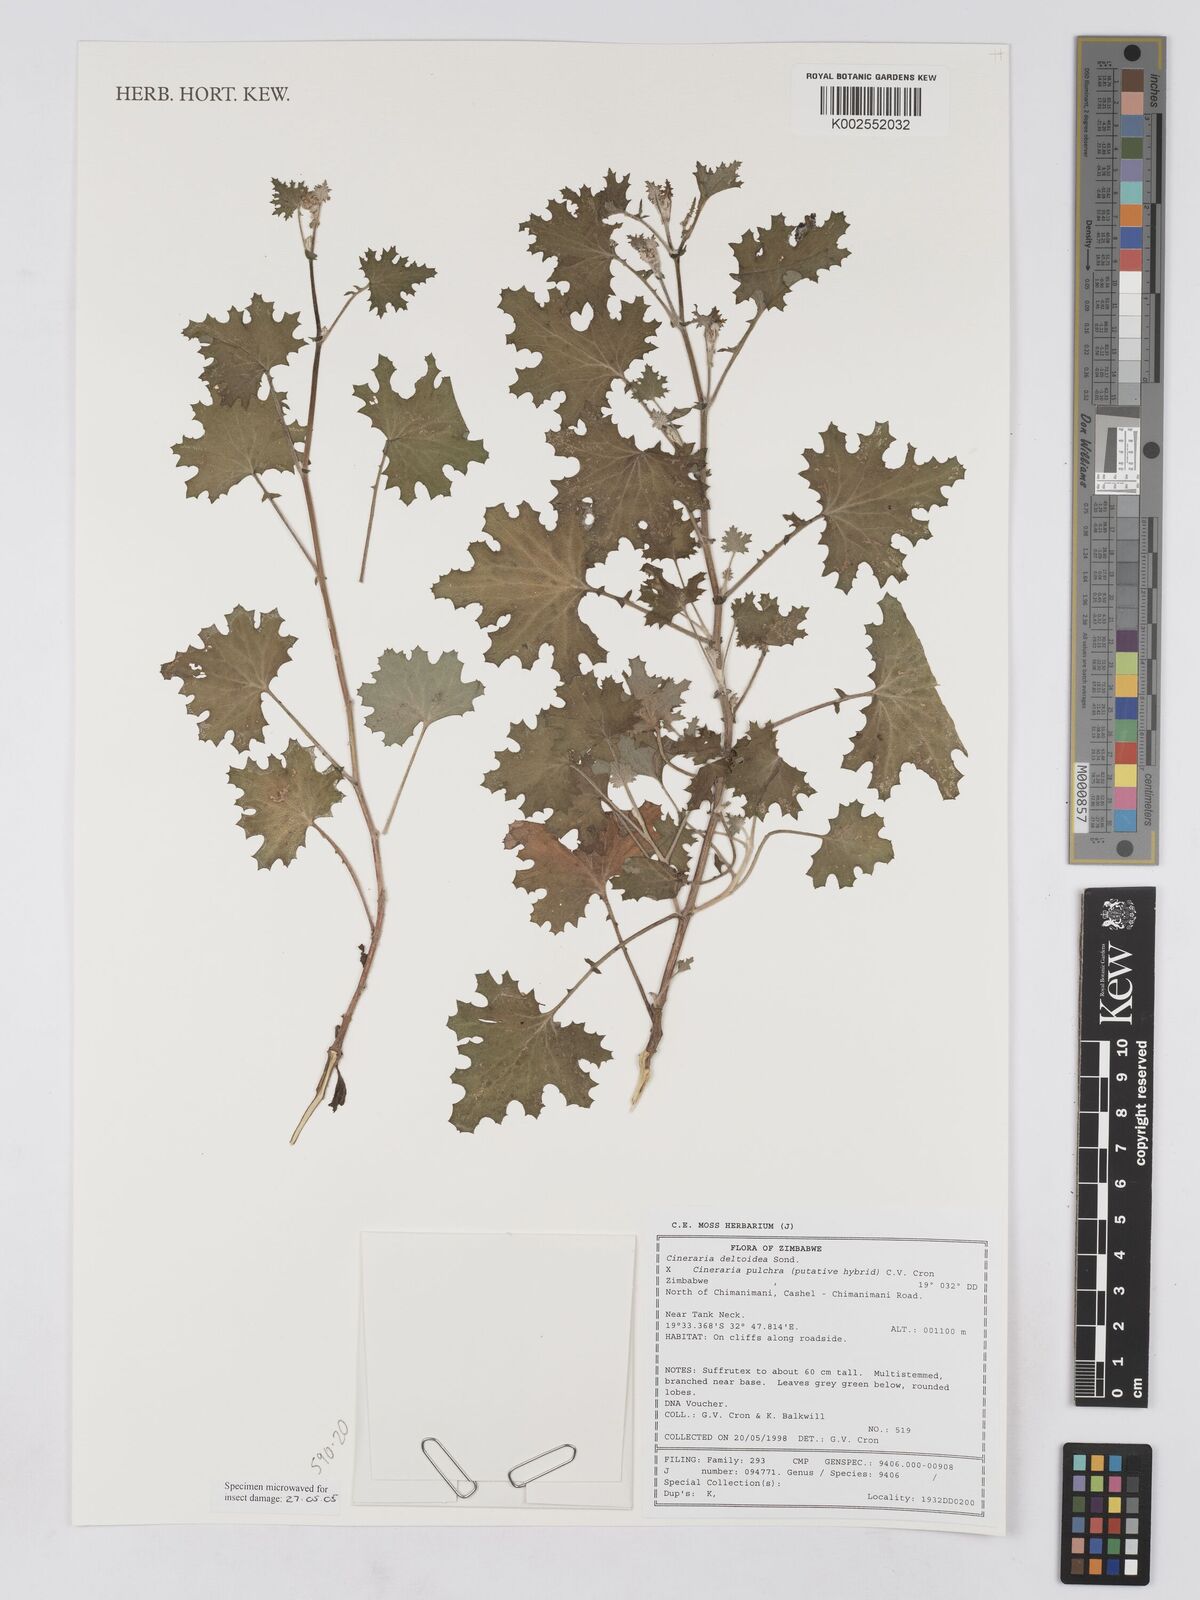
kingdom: Plantae
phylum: Tracheophyta
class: Magnoliopsida
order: Asterales
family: Asteraceae
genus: Cineraria
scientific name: Cineraria deltoidea
